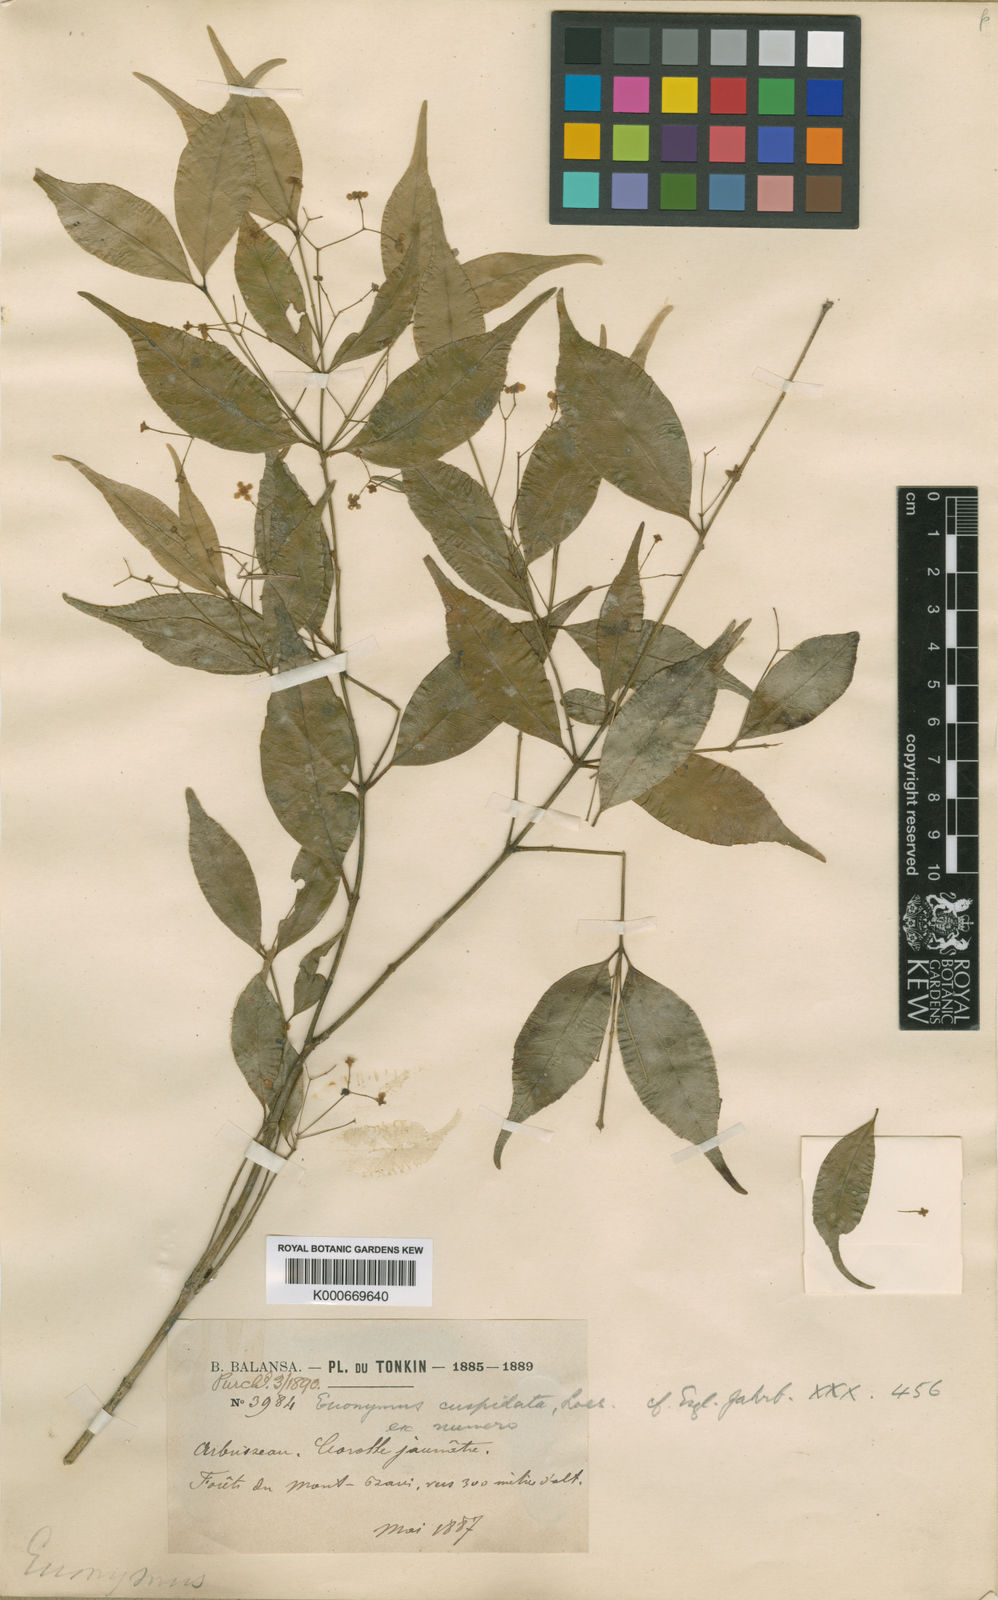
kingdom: Plantae
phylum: Tracheophyta
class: Magnoliopsida
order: Celastrales
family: Celastraceae
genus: Euonymus
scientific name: Euonymus laxiflorus
